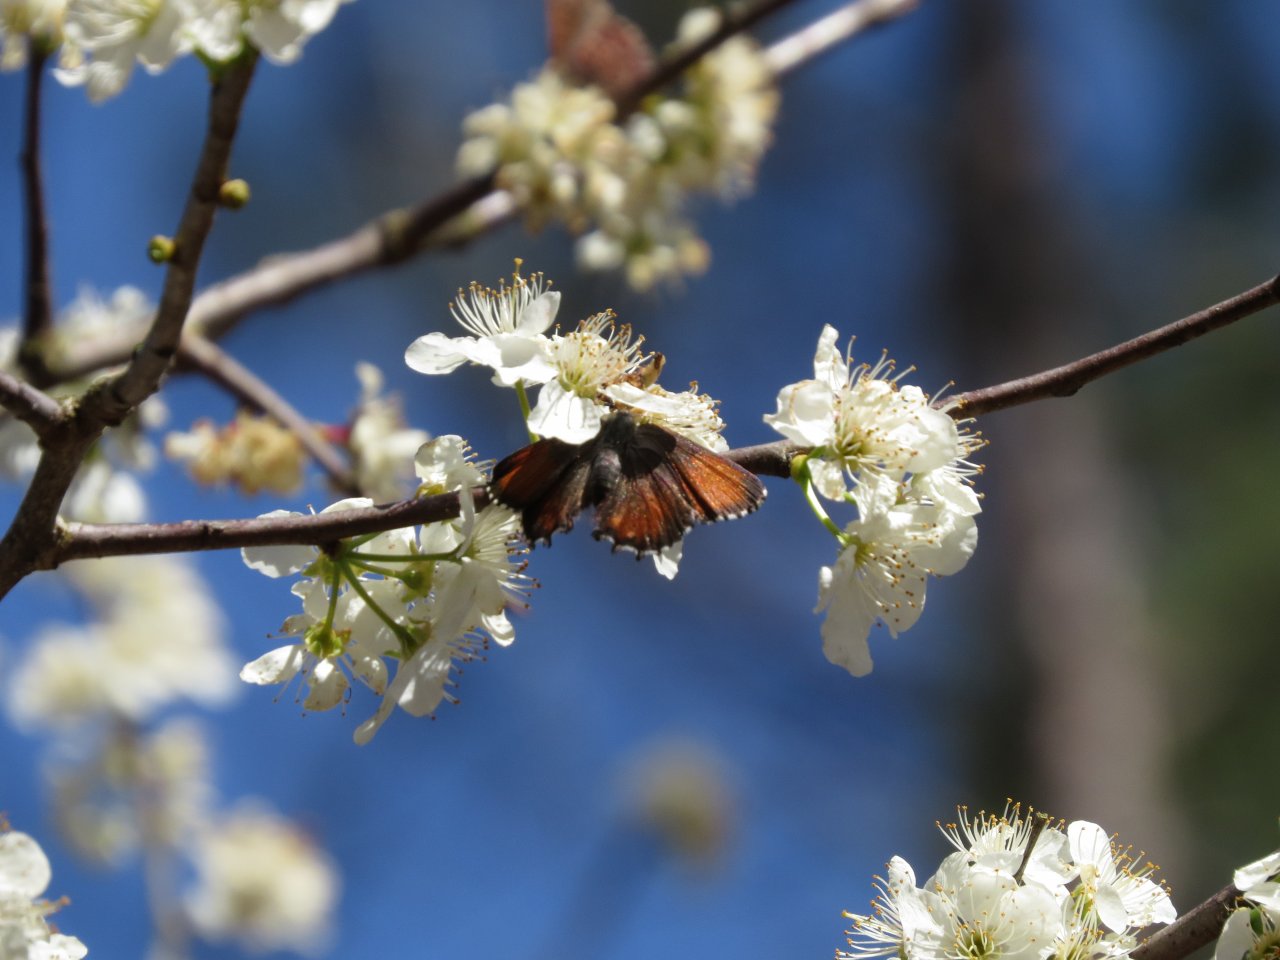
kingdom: Animalia
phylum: Arthropoda
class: Insecta
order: Lepidoptera
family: Lycaenidae
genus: Incisalia
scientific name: Incisalia niphon
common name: Eastern Pine Elfin
